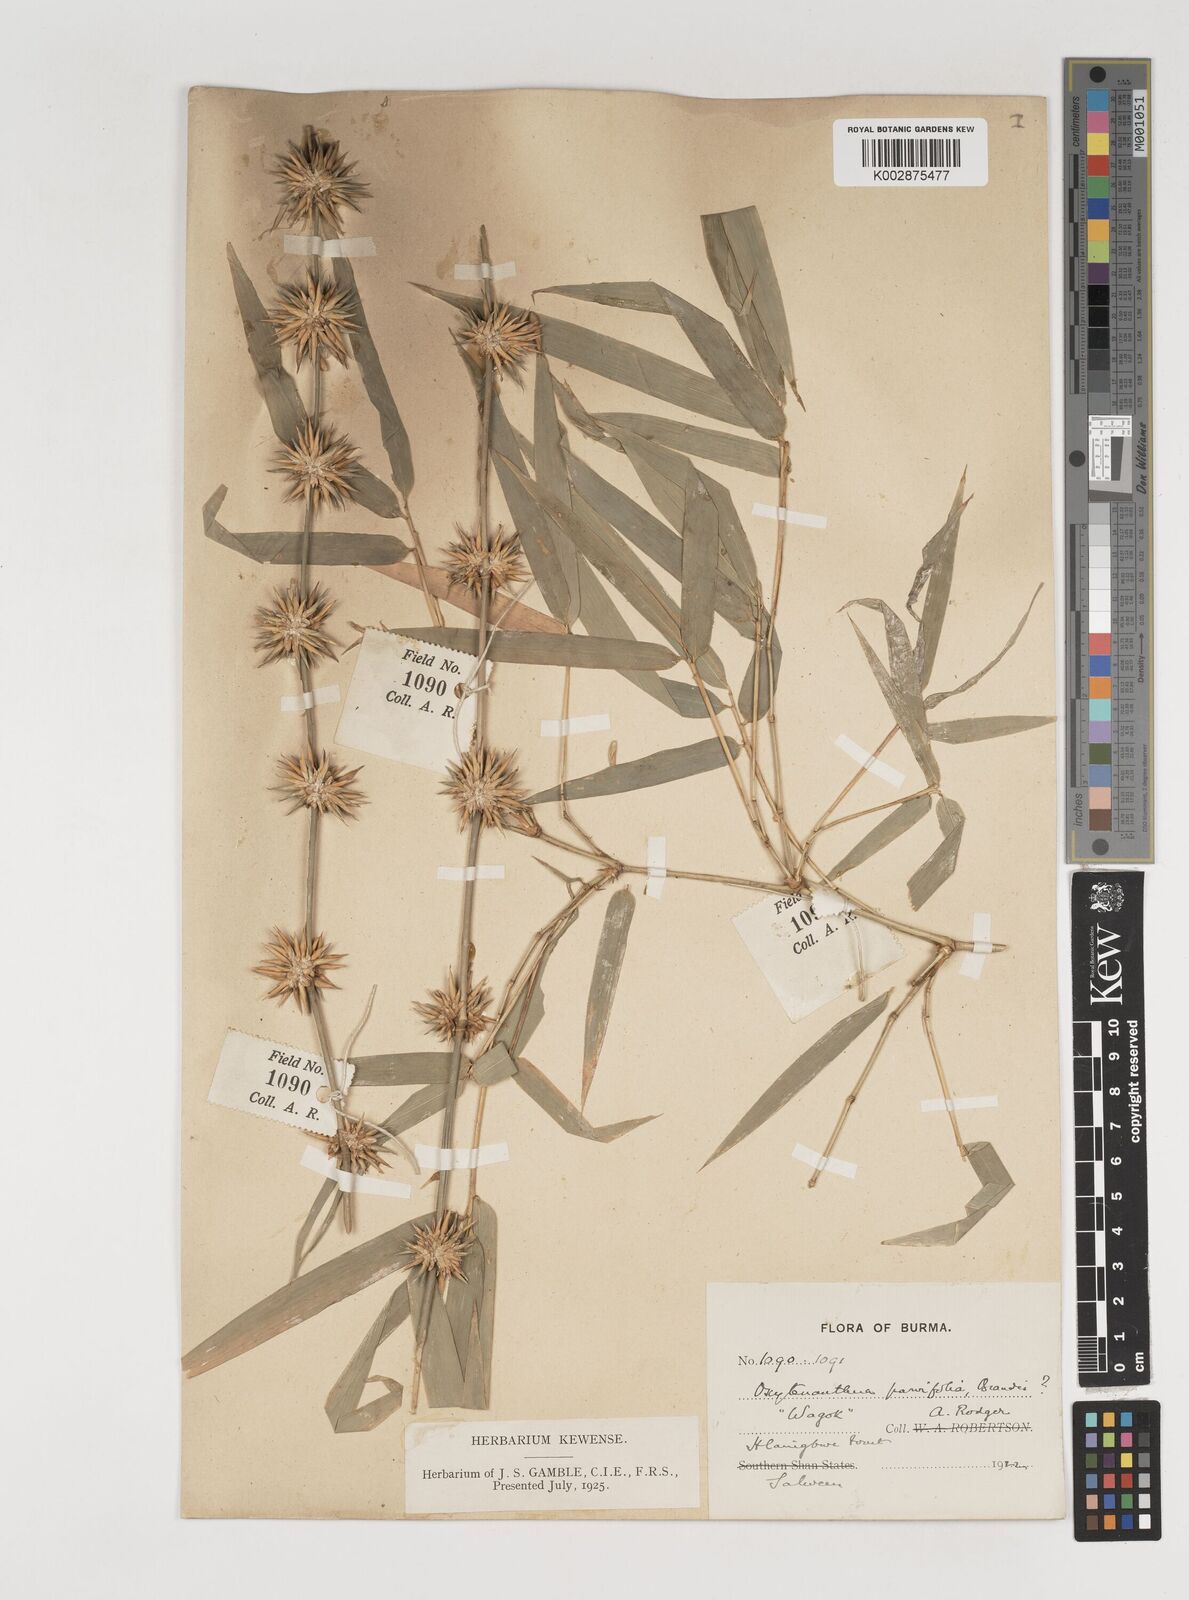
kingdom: Plantae
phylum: Tracheophyta
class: Liliopsida
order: Poales
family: Poaceae
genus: Dendrocalamus
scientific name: Dendrocalamus merrillianus
